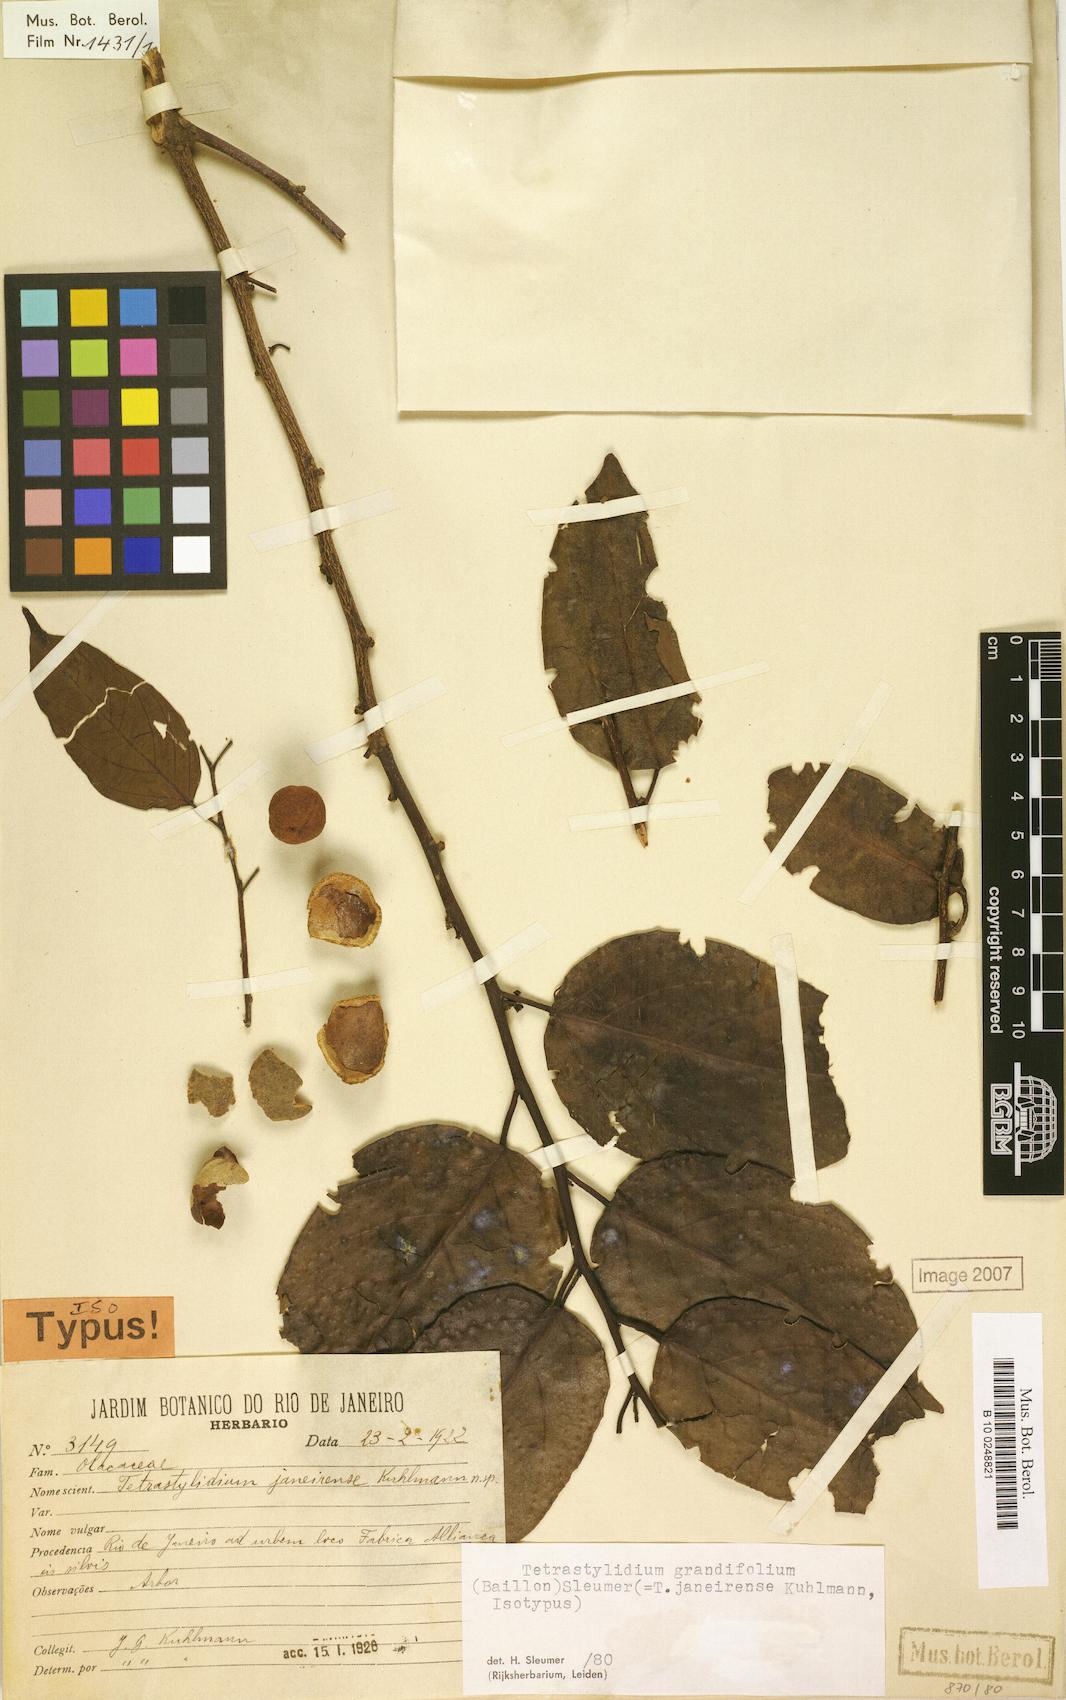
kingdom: Plantae
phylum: Tracheophyta
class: Magnoliopsida
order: Santalales
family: Strombosiaceae
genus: Tetrastylidium
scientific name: Tetrastylidium grandifolium
